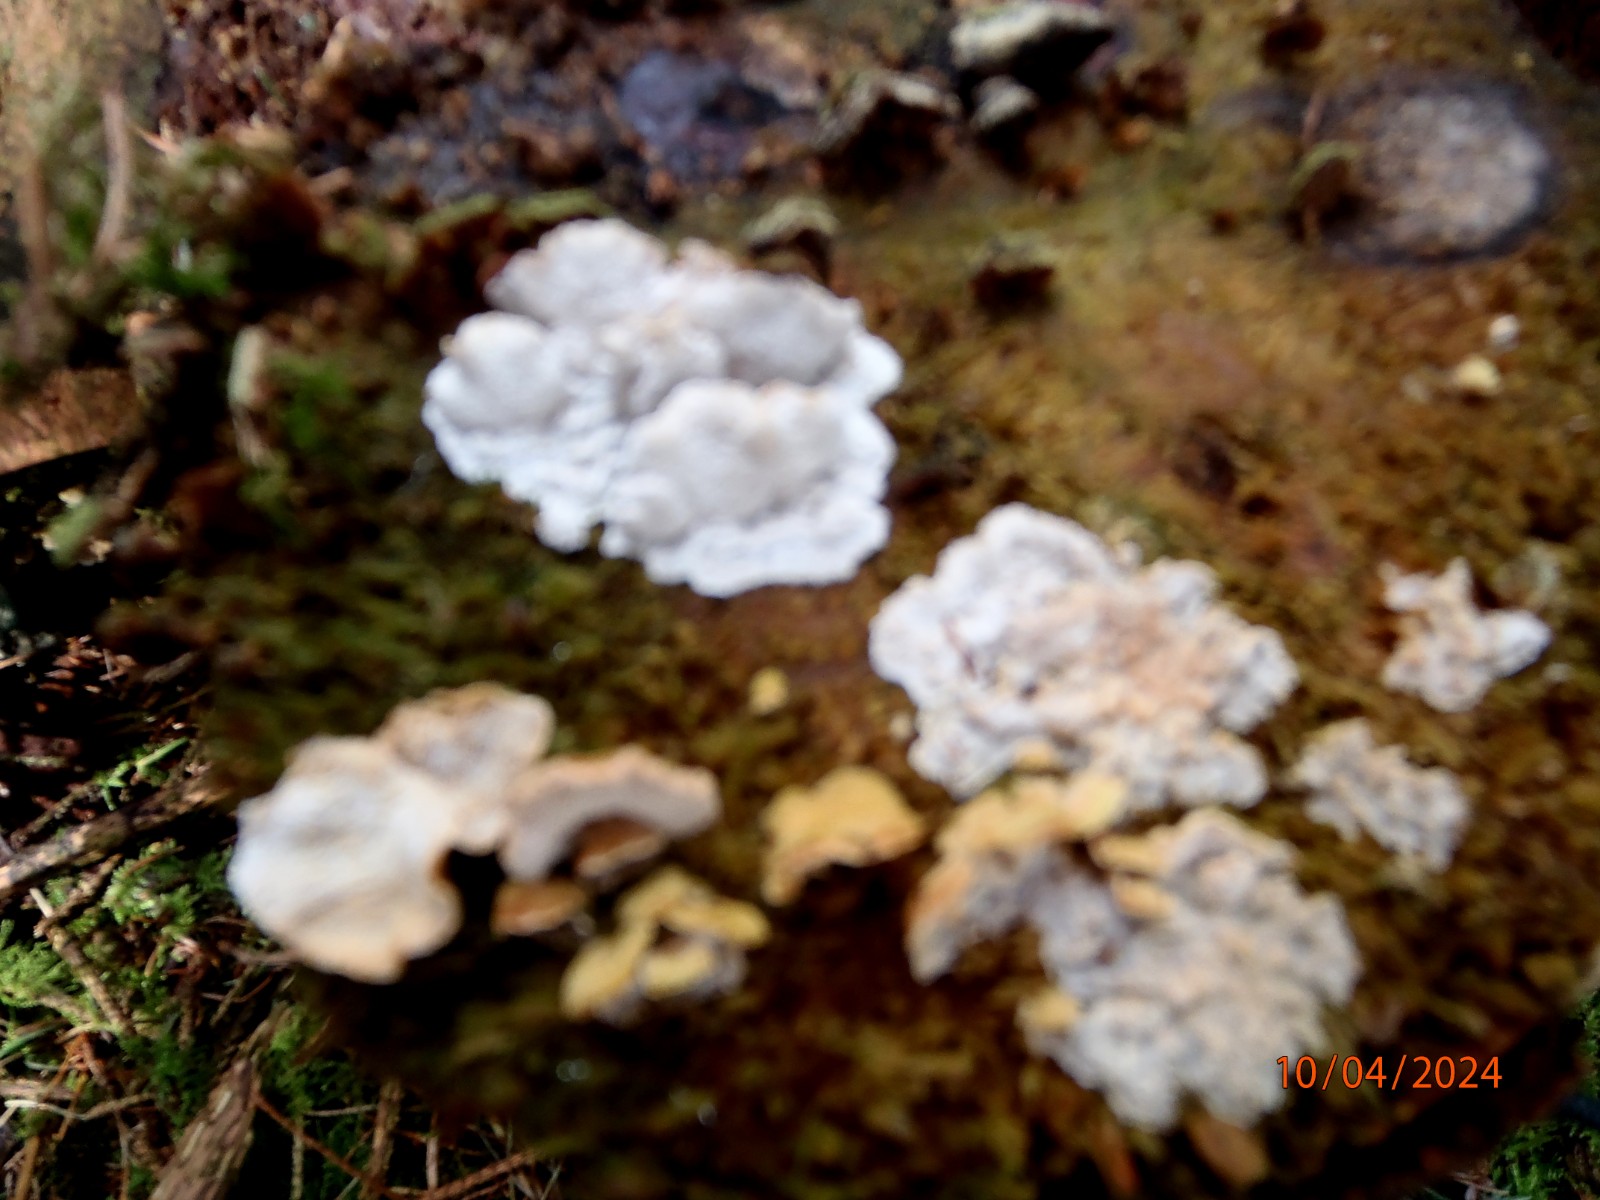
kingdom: Fungi
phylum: Basidiomycota
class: Agaricomycetes
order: Polyporales
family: Incrustoporiaceae
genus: Skeletocutis
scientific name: Skeletocutis carneogrisea
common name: rødgrå krystalporesvamp
